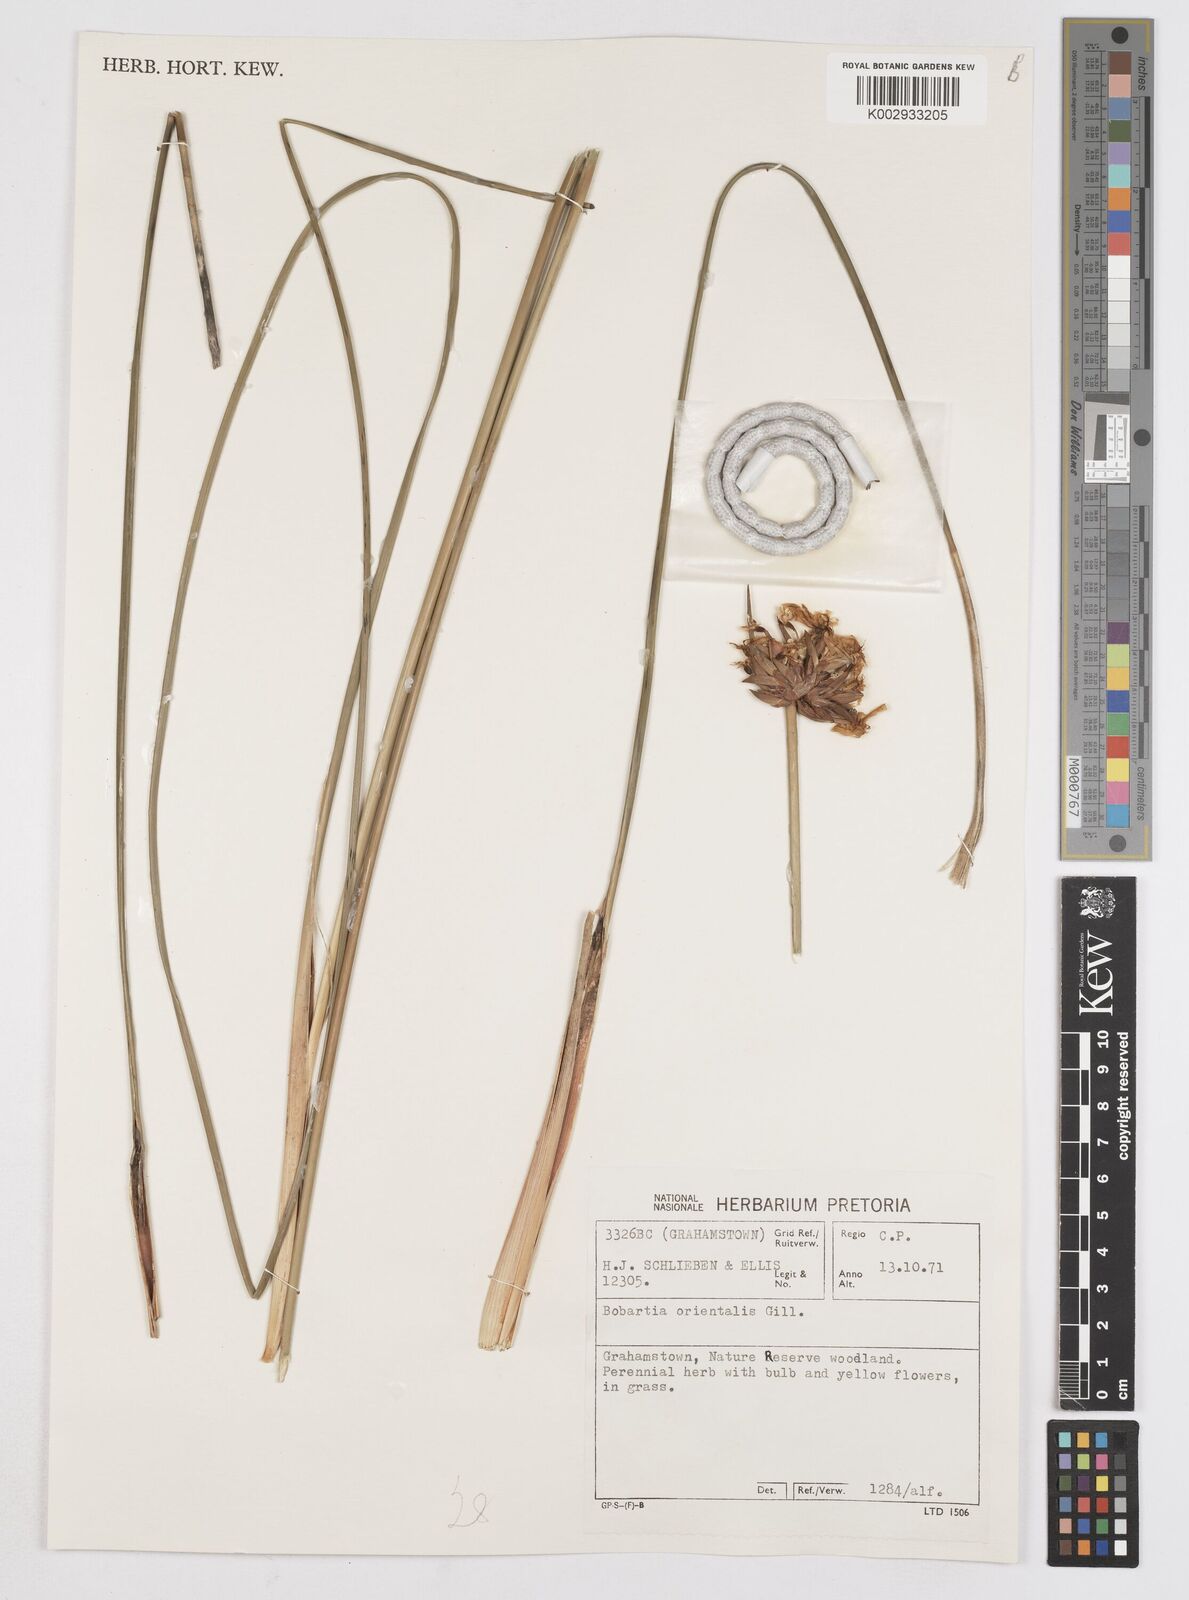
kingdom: Plantae
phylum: Tracheophyta
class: Liliopsida
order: Asparagales
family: Iridaceae
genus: Bobartia
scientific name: Bobartia orientalis
